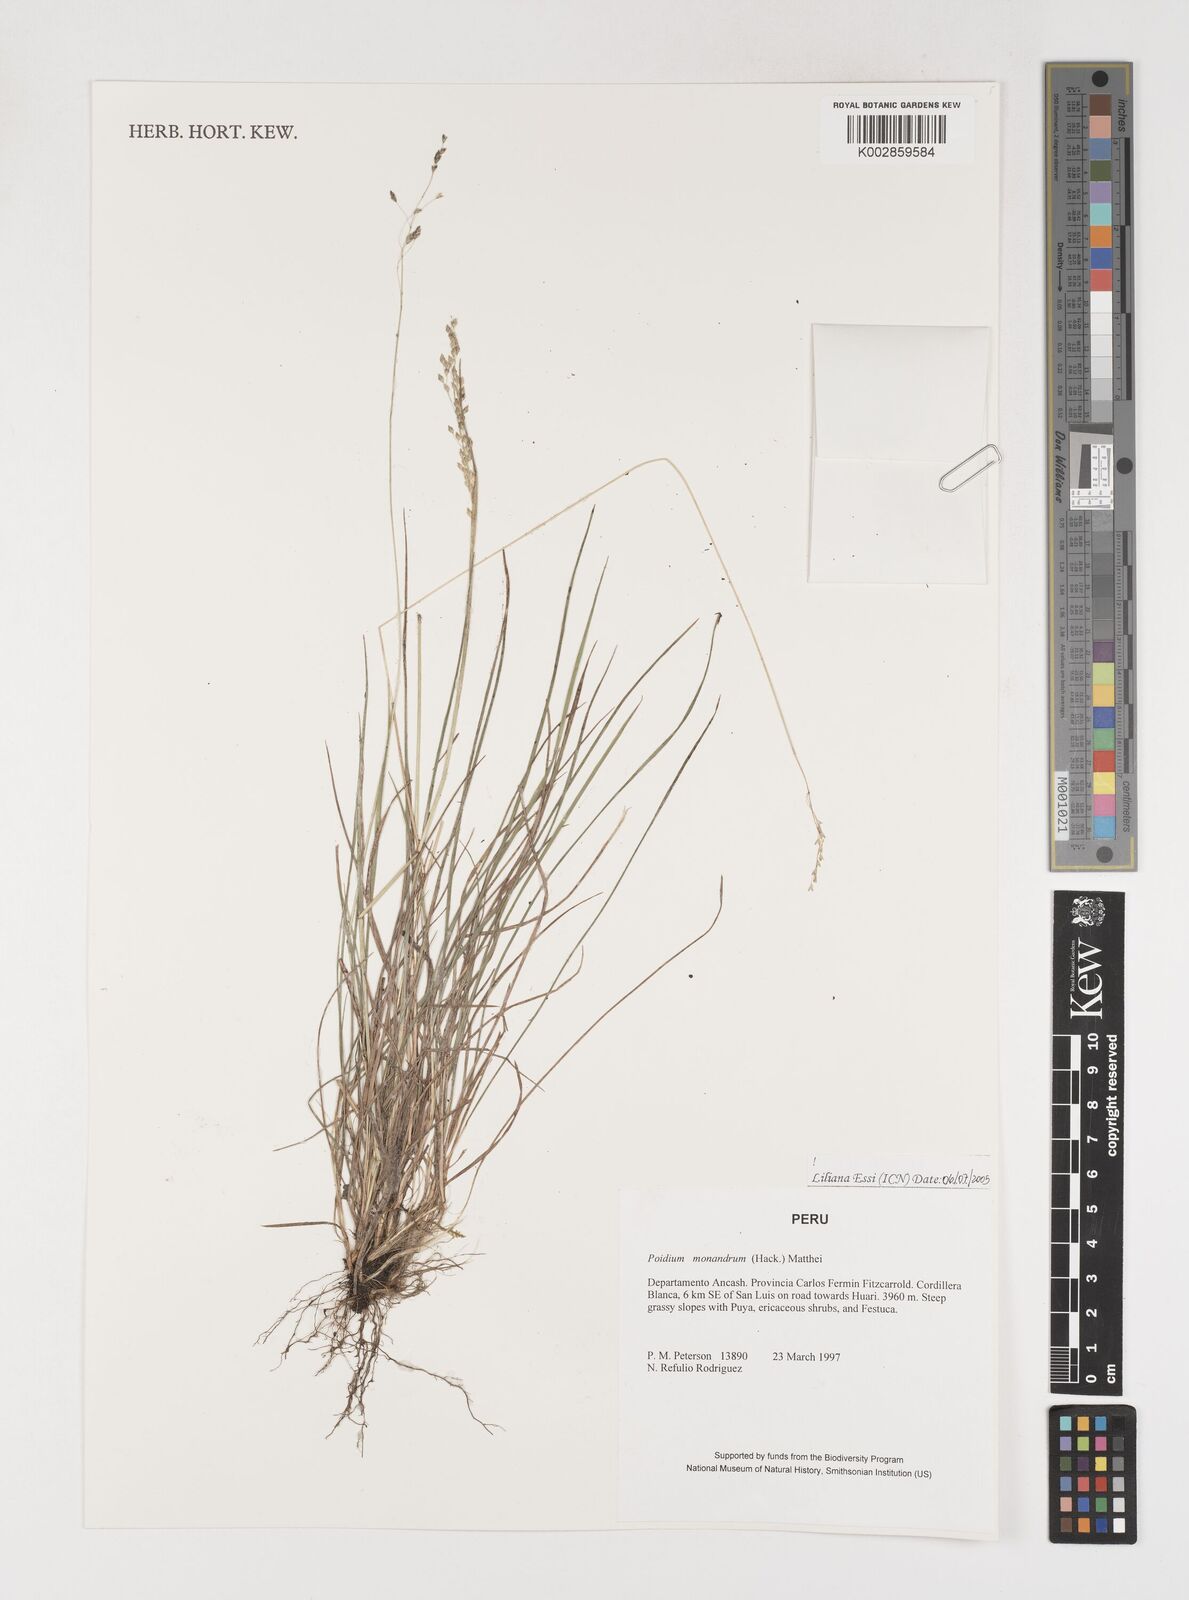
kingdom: Plantae
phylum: Tracheophyta
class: Liliopsida
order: Poales
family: Poaceae
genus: Poidium
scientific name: Poidium monandrum
